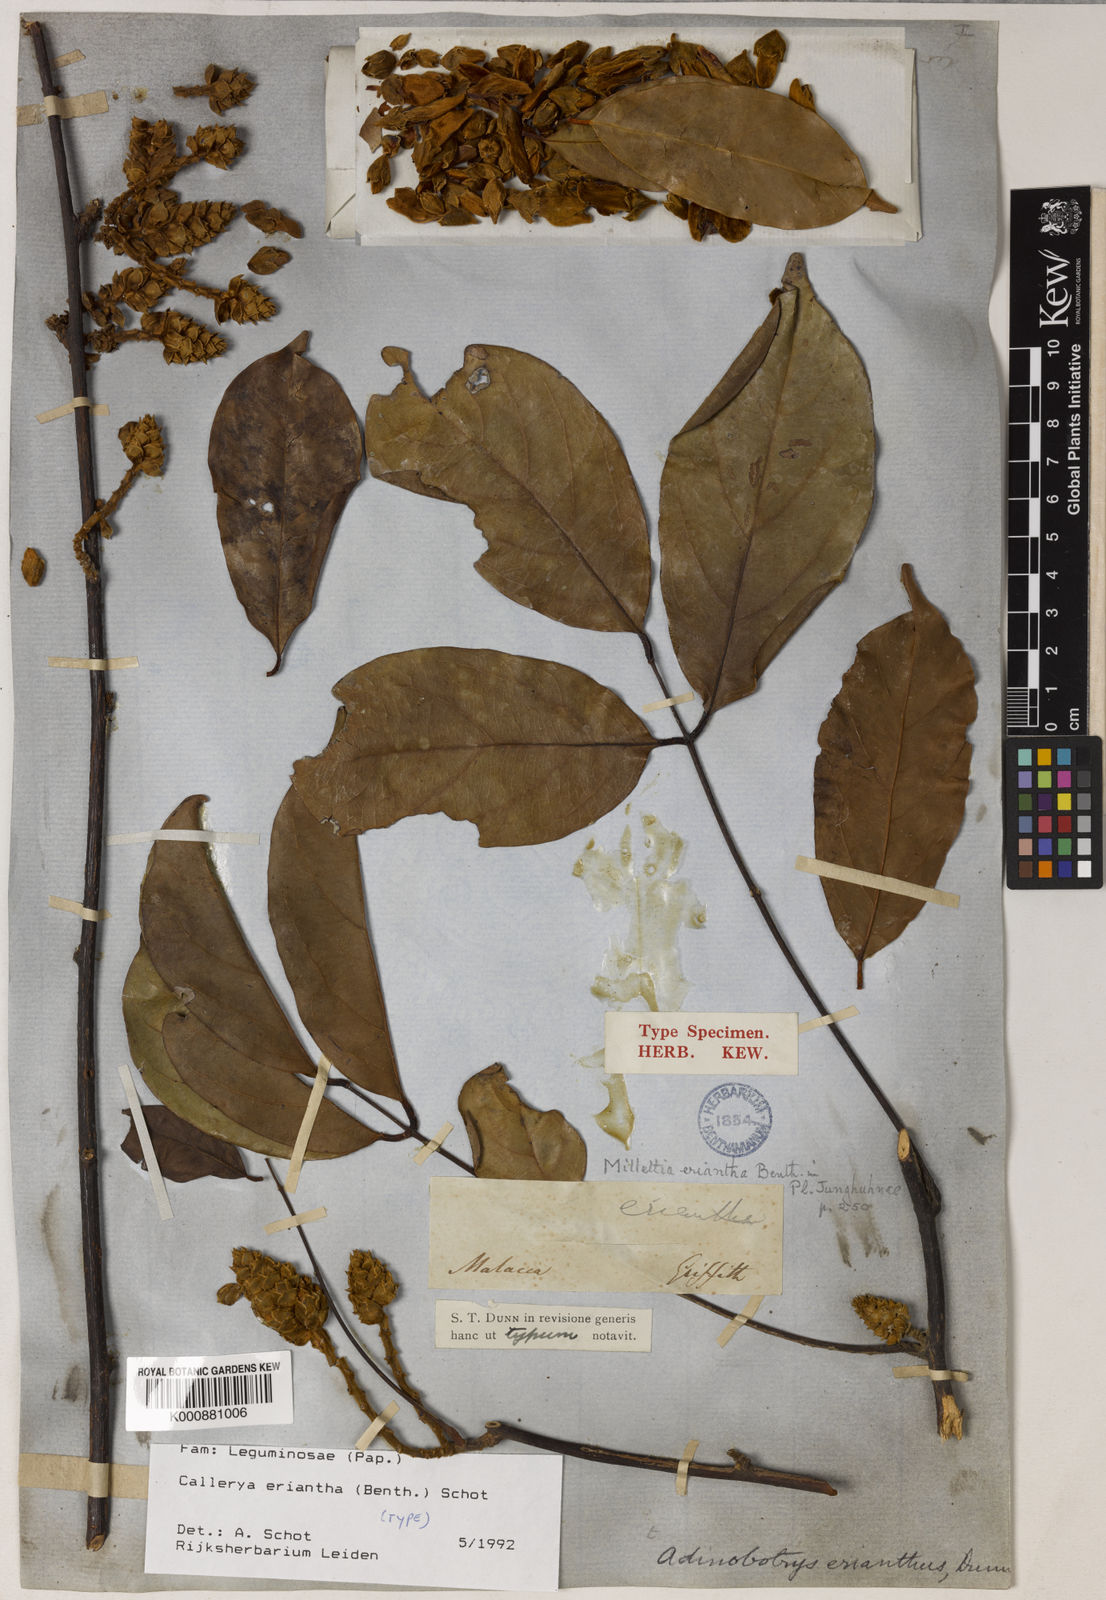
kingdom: Plantae
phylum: Tracheophyta
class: Magnoliopsida
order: Fabales
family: Fabaceae
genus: Whitfordiodendron
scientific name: Whitfordiodendron erianthum
